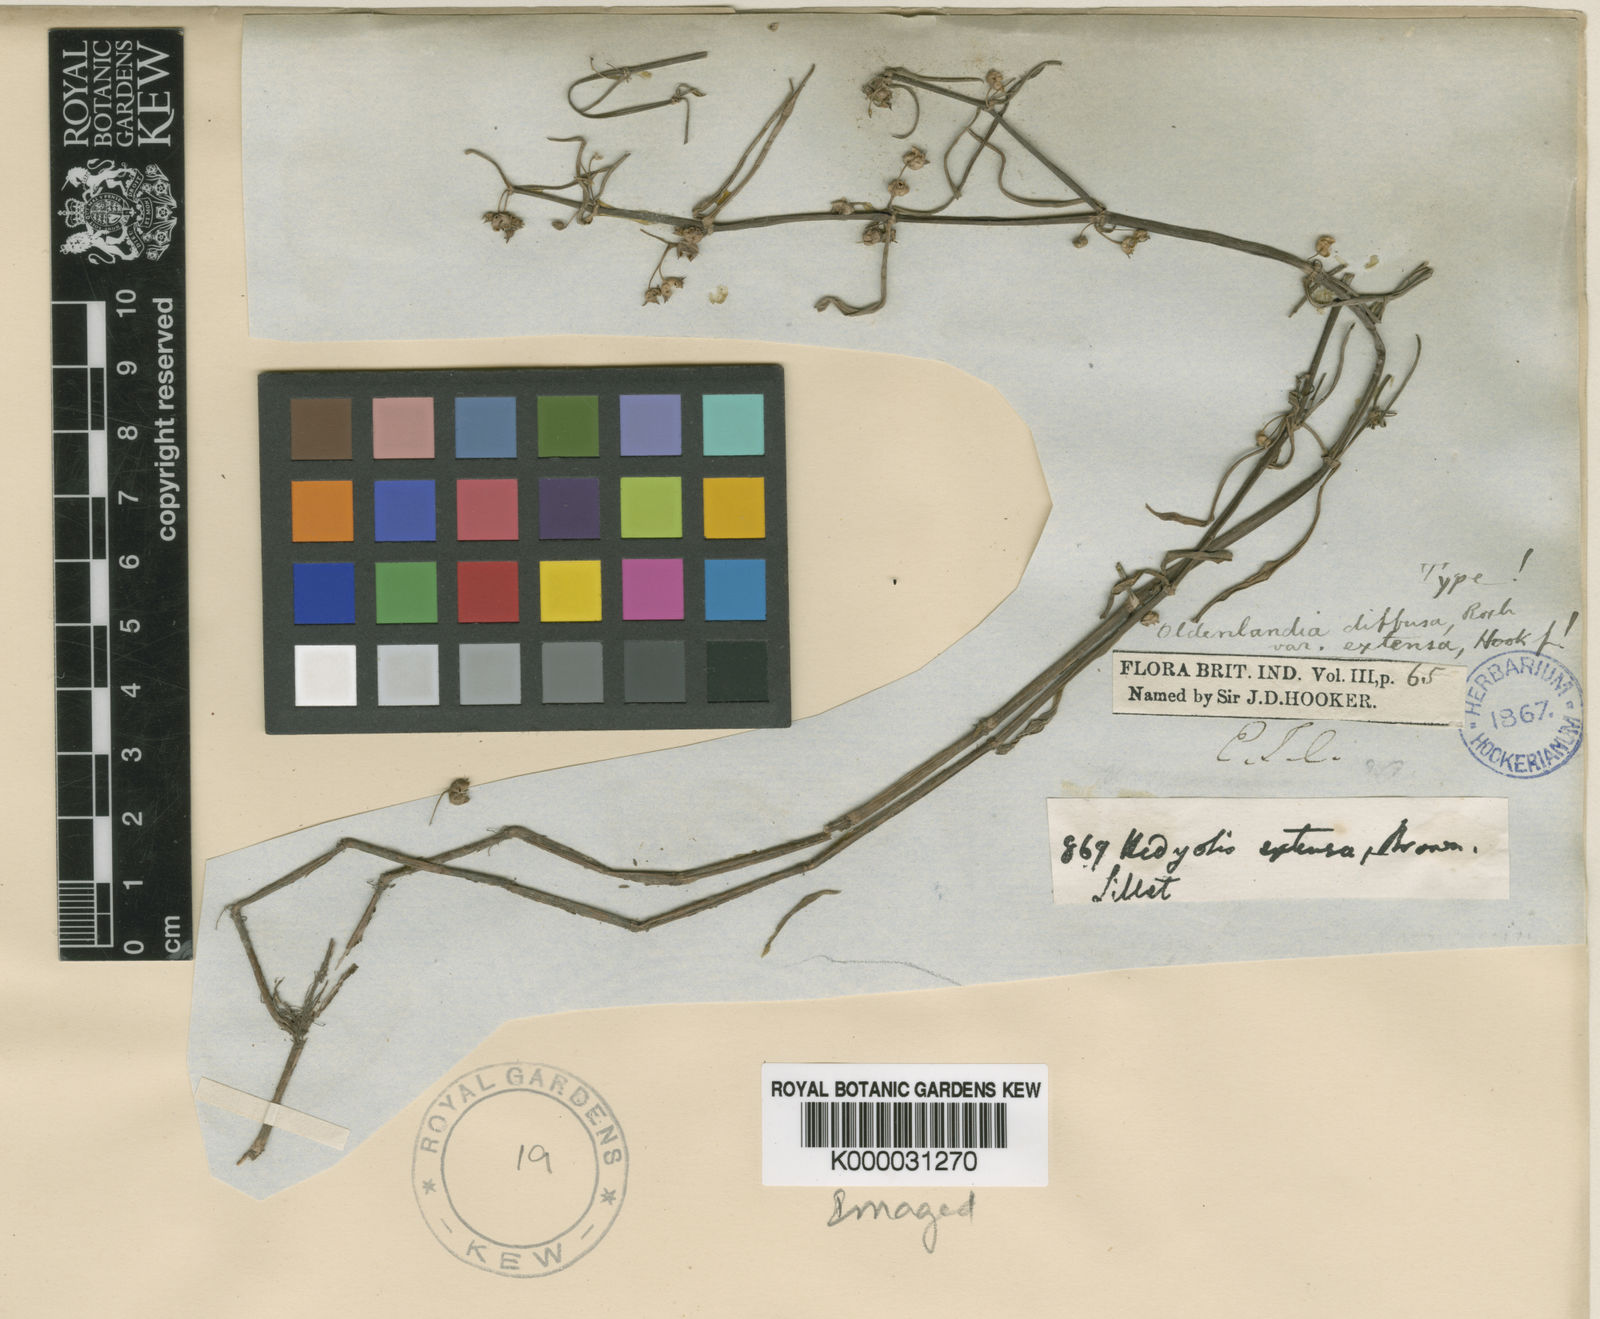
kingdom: Plantae
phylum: Tracheophyta
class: Magnoliopsida
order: Gentianales
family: Rubiaceae
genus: Scleromitrion
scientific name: Scleromitrion diffusum
